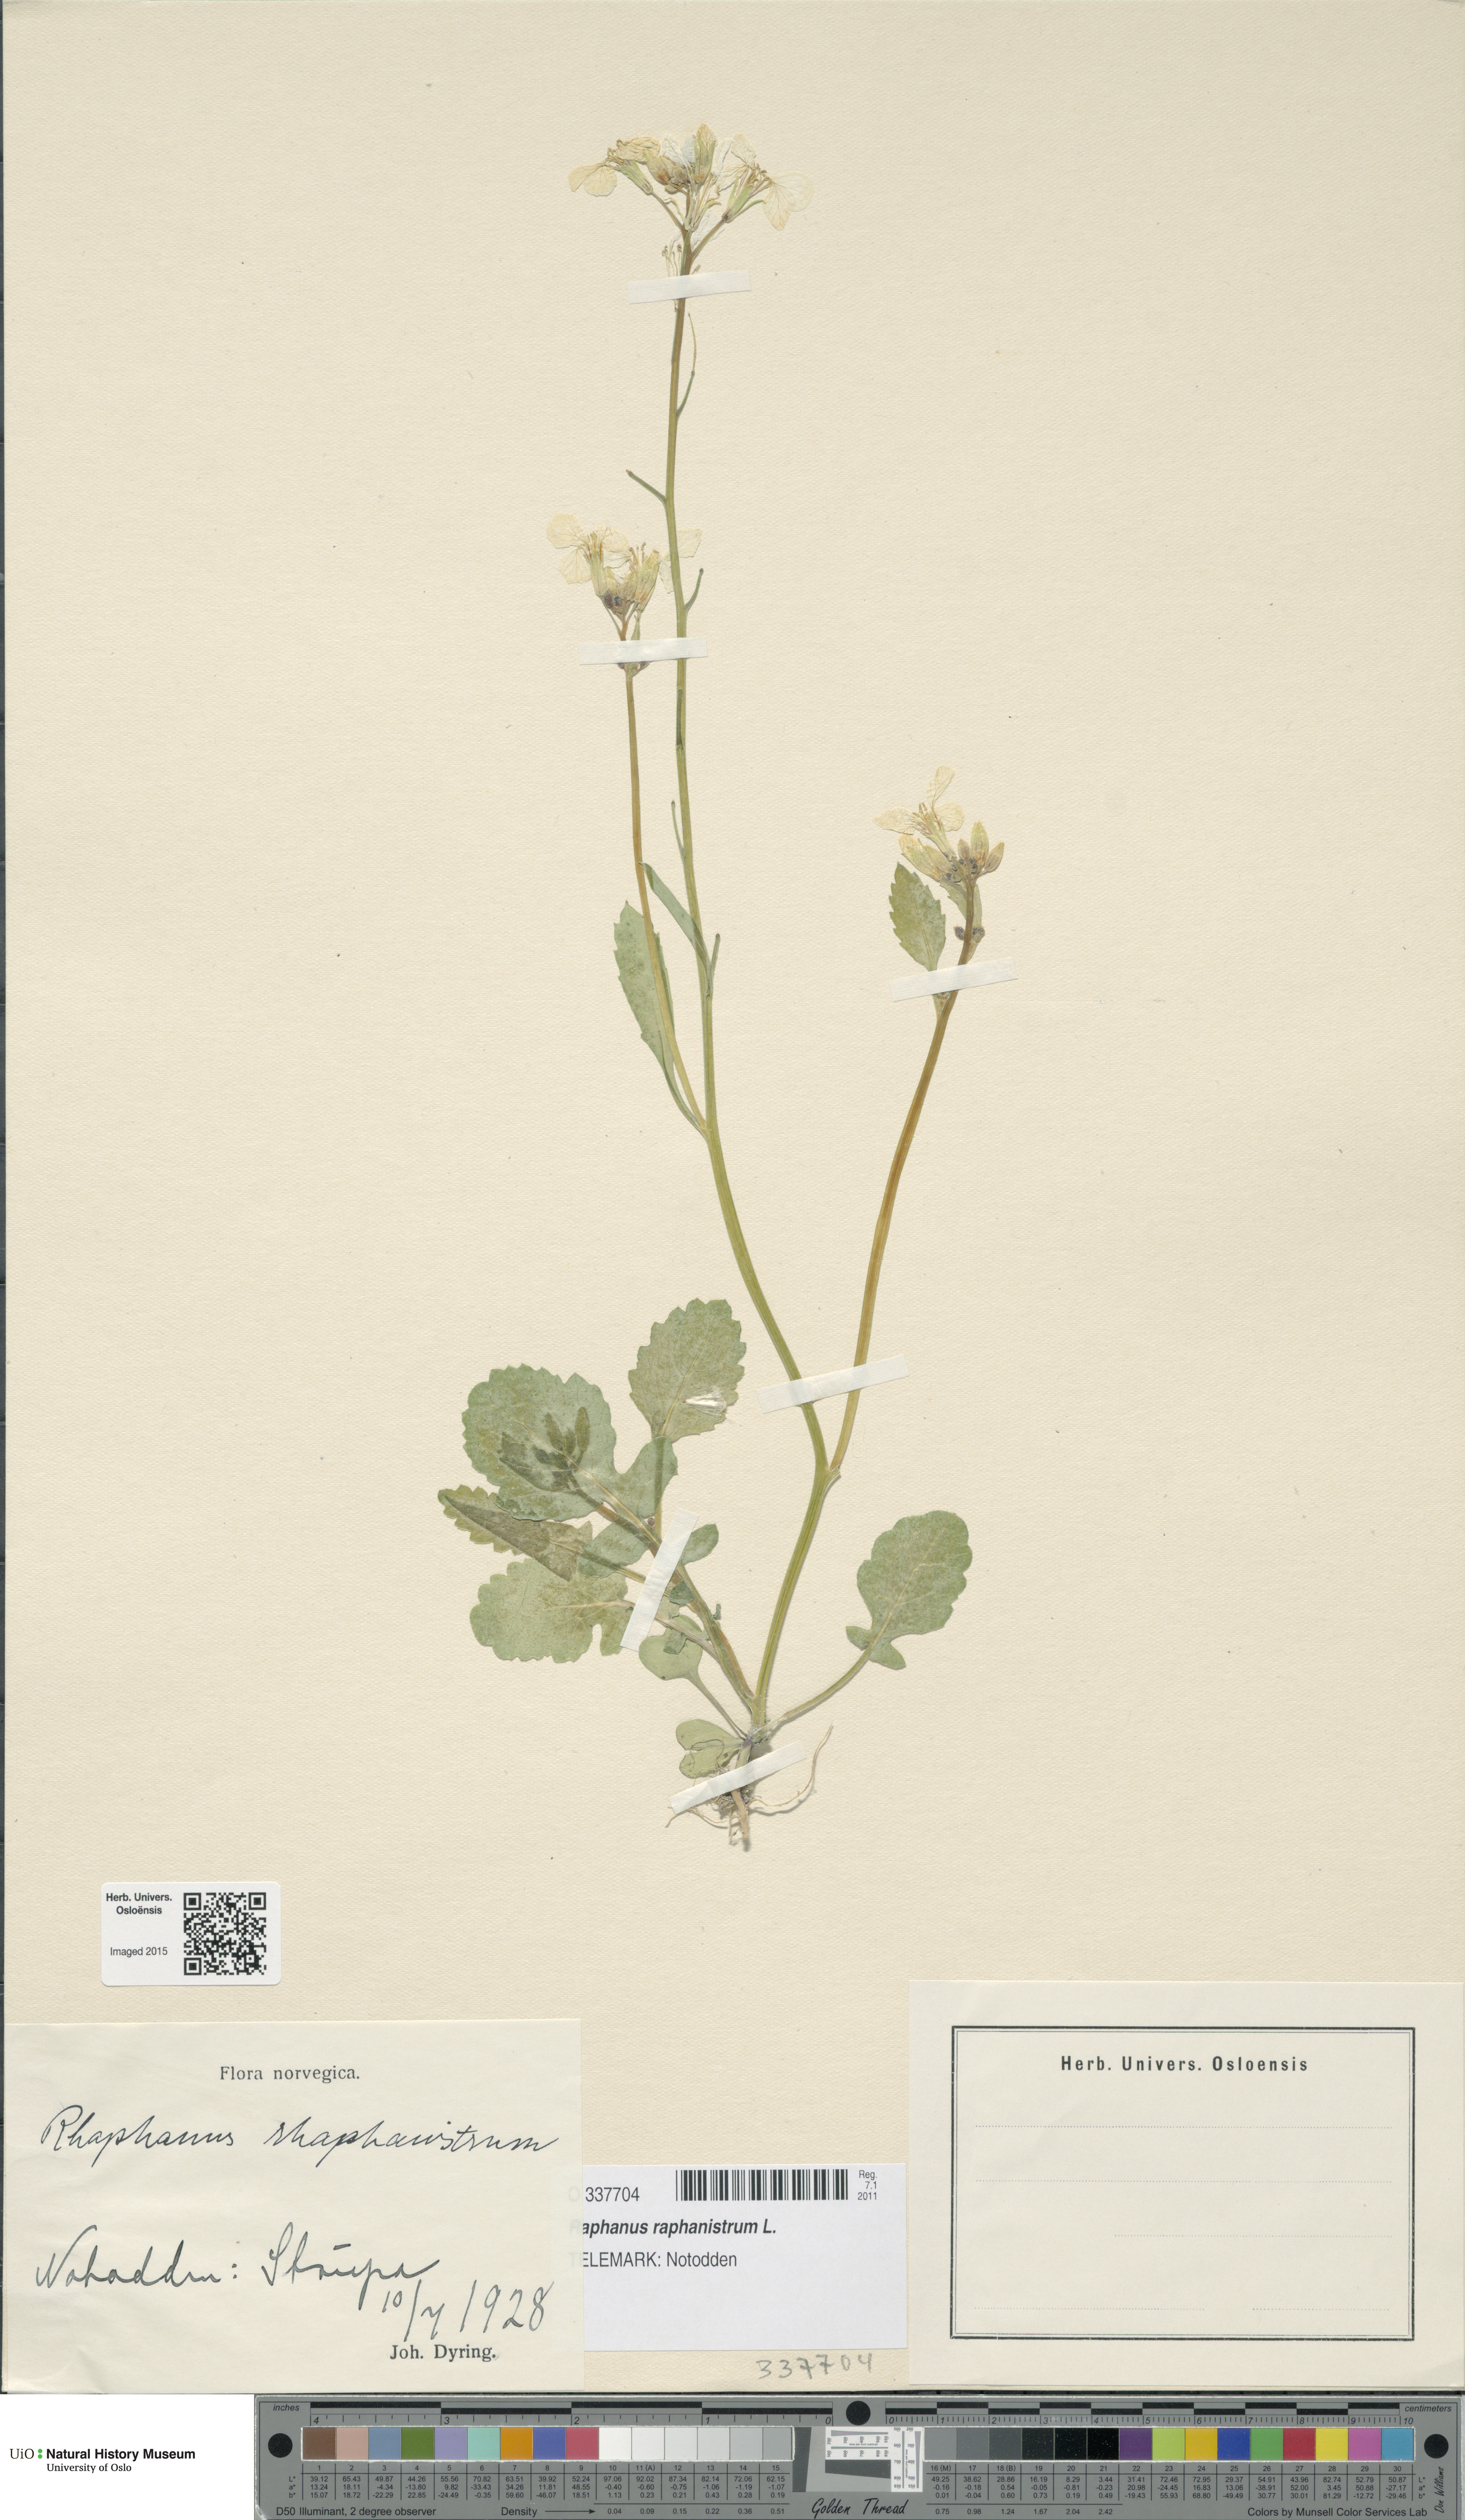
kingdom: Plantae
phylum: Tracheophyta
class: Magnoliopsida
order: Brassicales
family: Brassicaceae
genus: Raphanus
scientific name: Raphanus raphanistrum
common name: Wild radish
